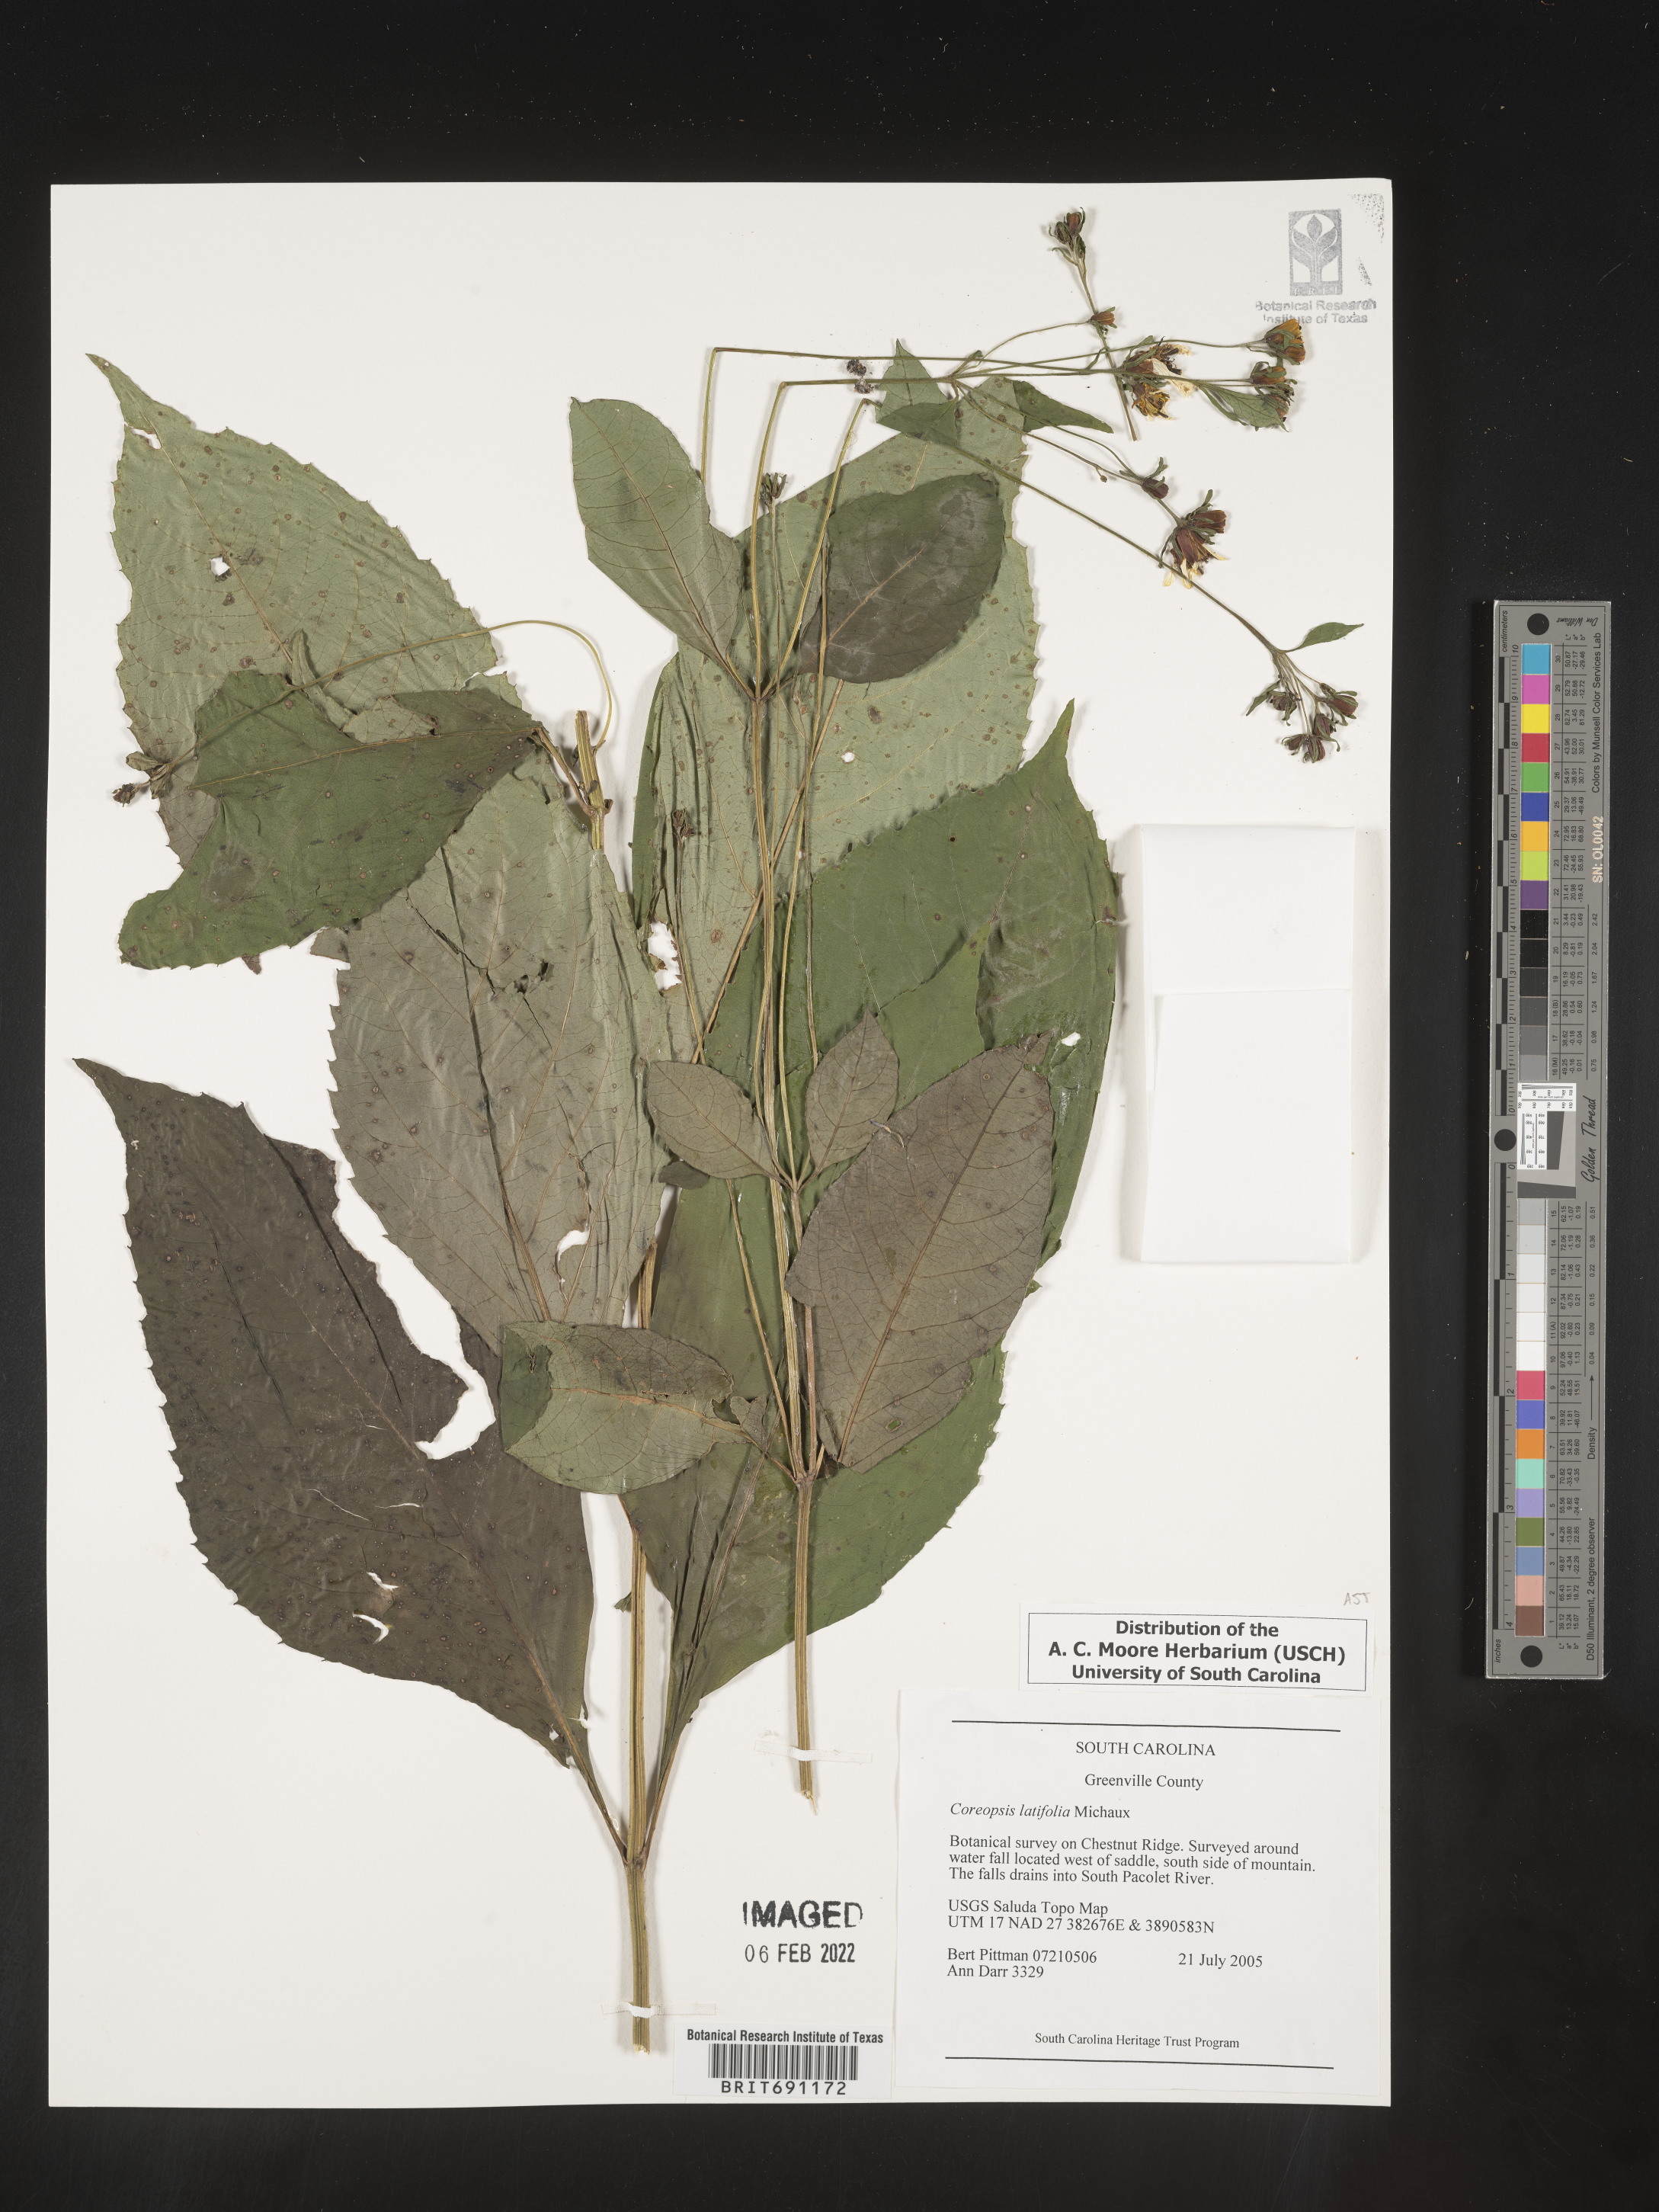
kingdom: Plantae
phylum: Tracheophyta
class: Magnoliopsida
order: Asterales
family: Asteraceae
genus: Coreopsis
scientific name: Coreopsis latifolia
